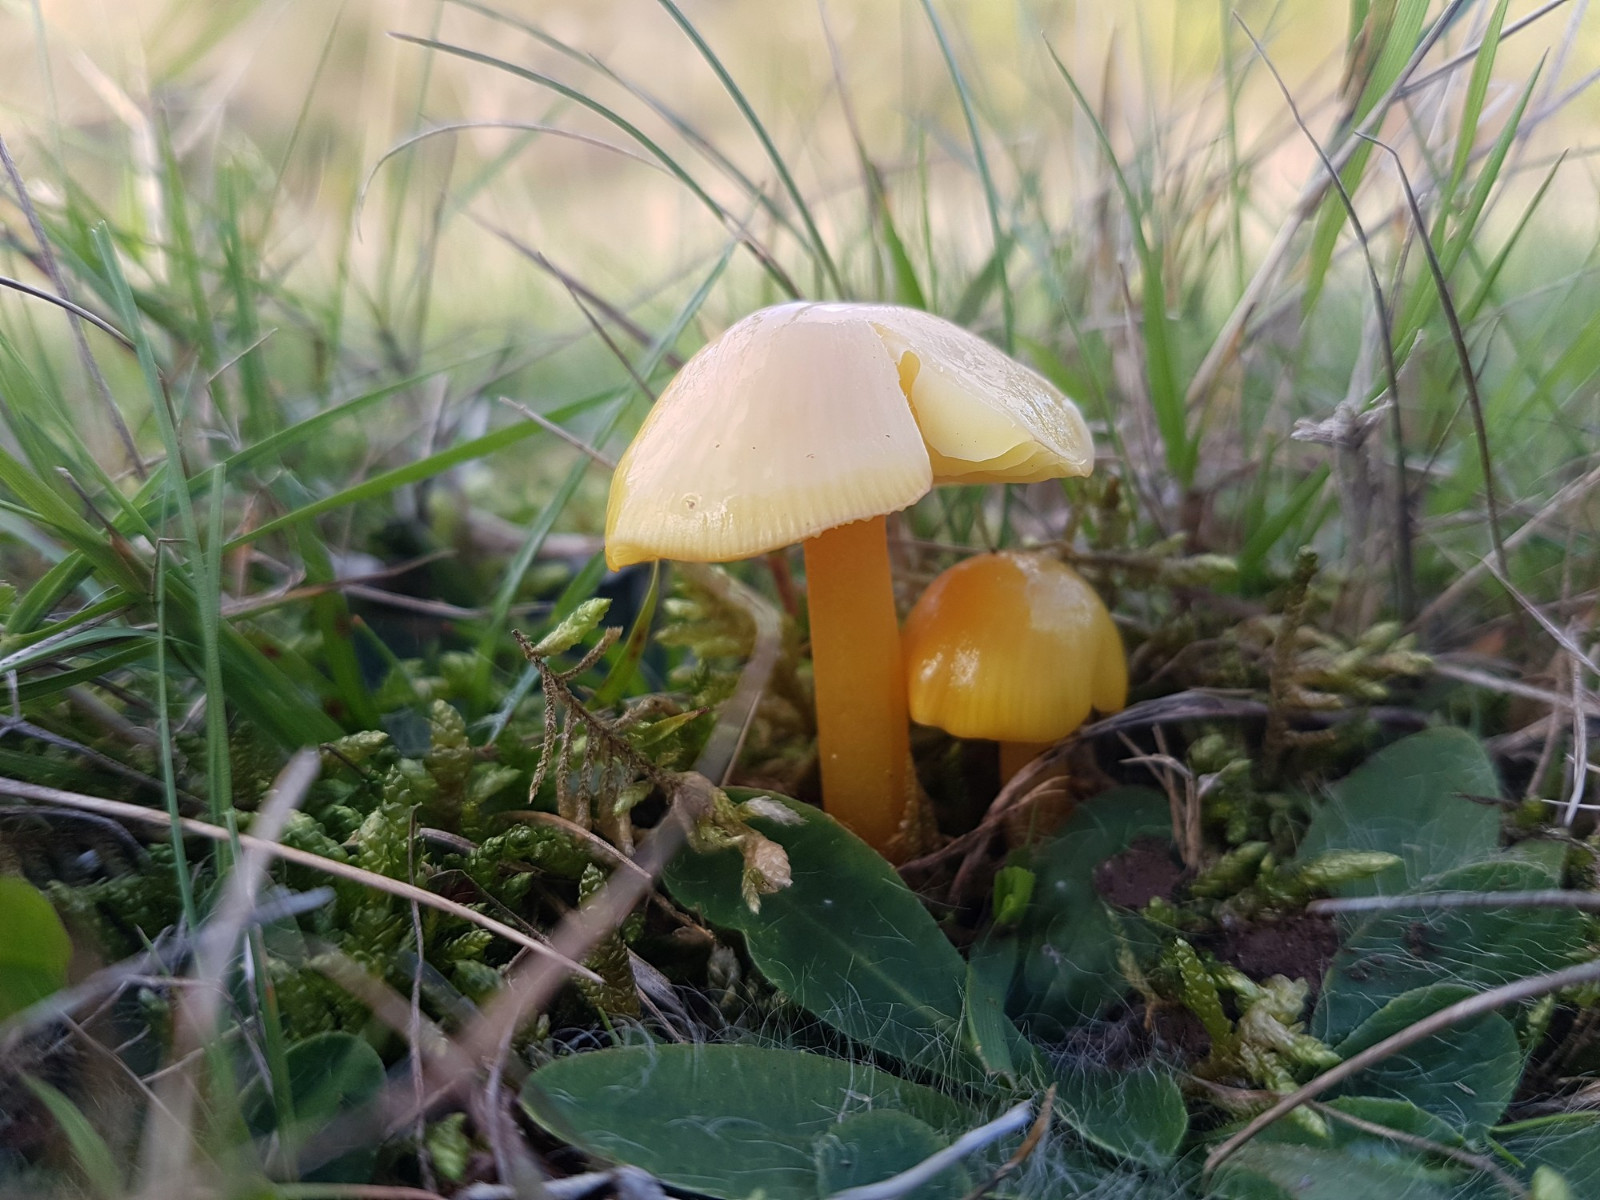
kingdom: Fungi
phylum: Basidiomycota
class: Agaricomycetes
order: Agaricales
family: Hygrophoraceae
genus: Hygrocybe
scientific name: Hygrocybe chlorophana
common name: gul vokshat
